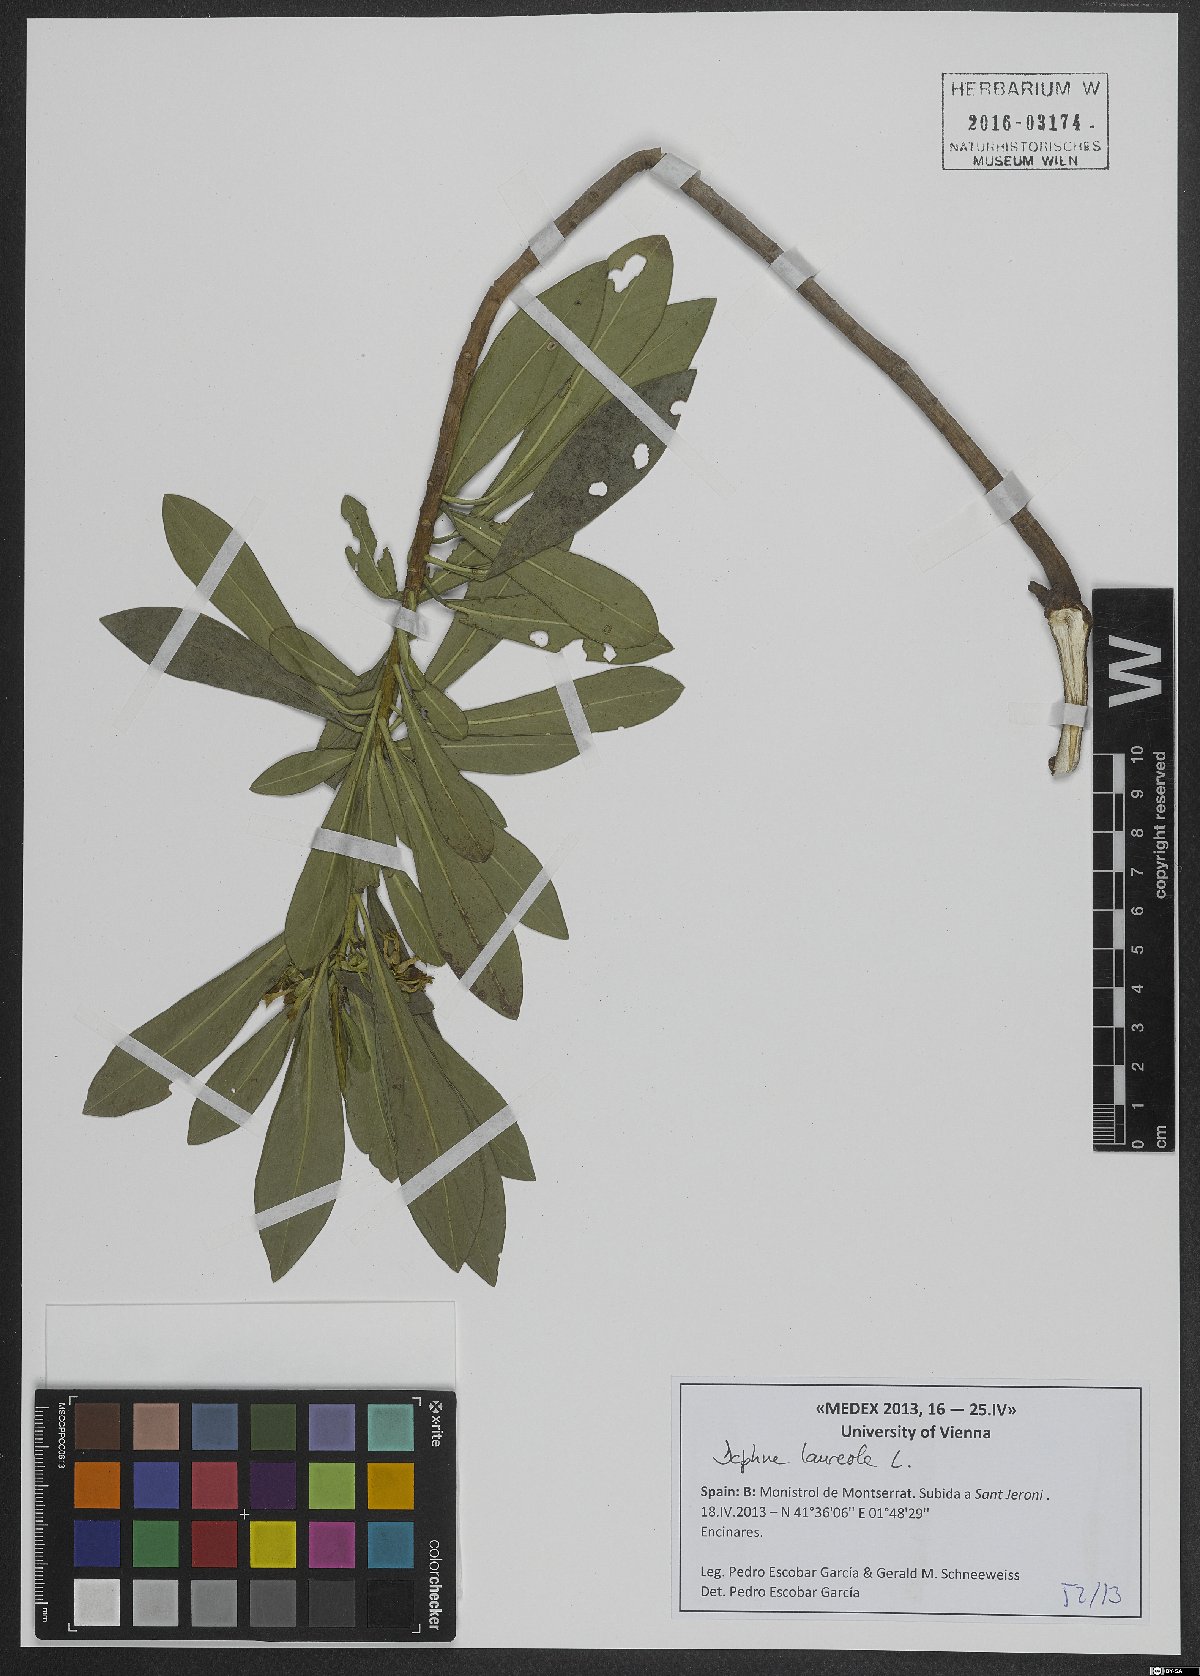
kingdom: Plantae
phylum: Tracheophyta
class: Magnoliopsida
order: Malvales
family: Thymelaeaceae
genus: Daphne
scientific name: Daphne laureola
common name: Spurge-laurel
